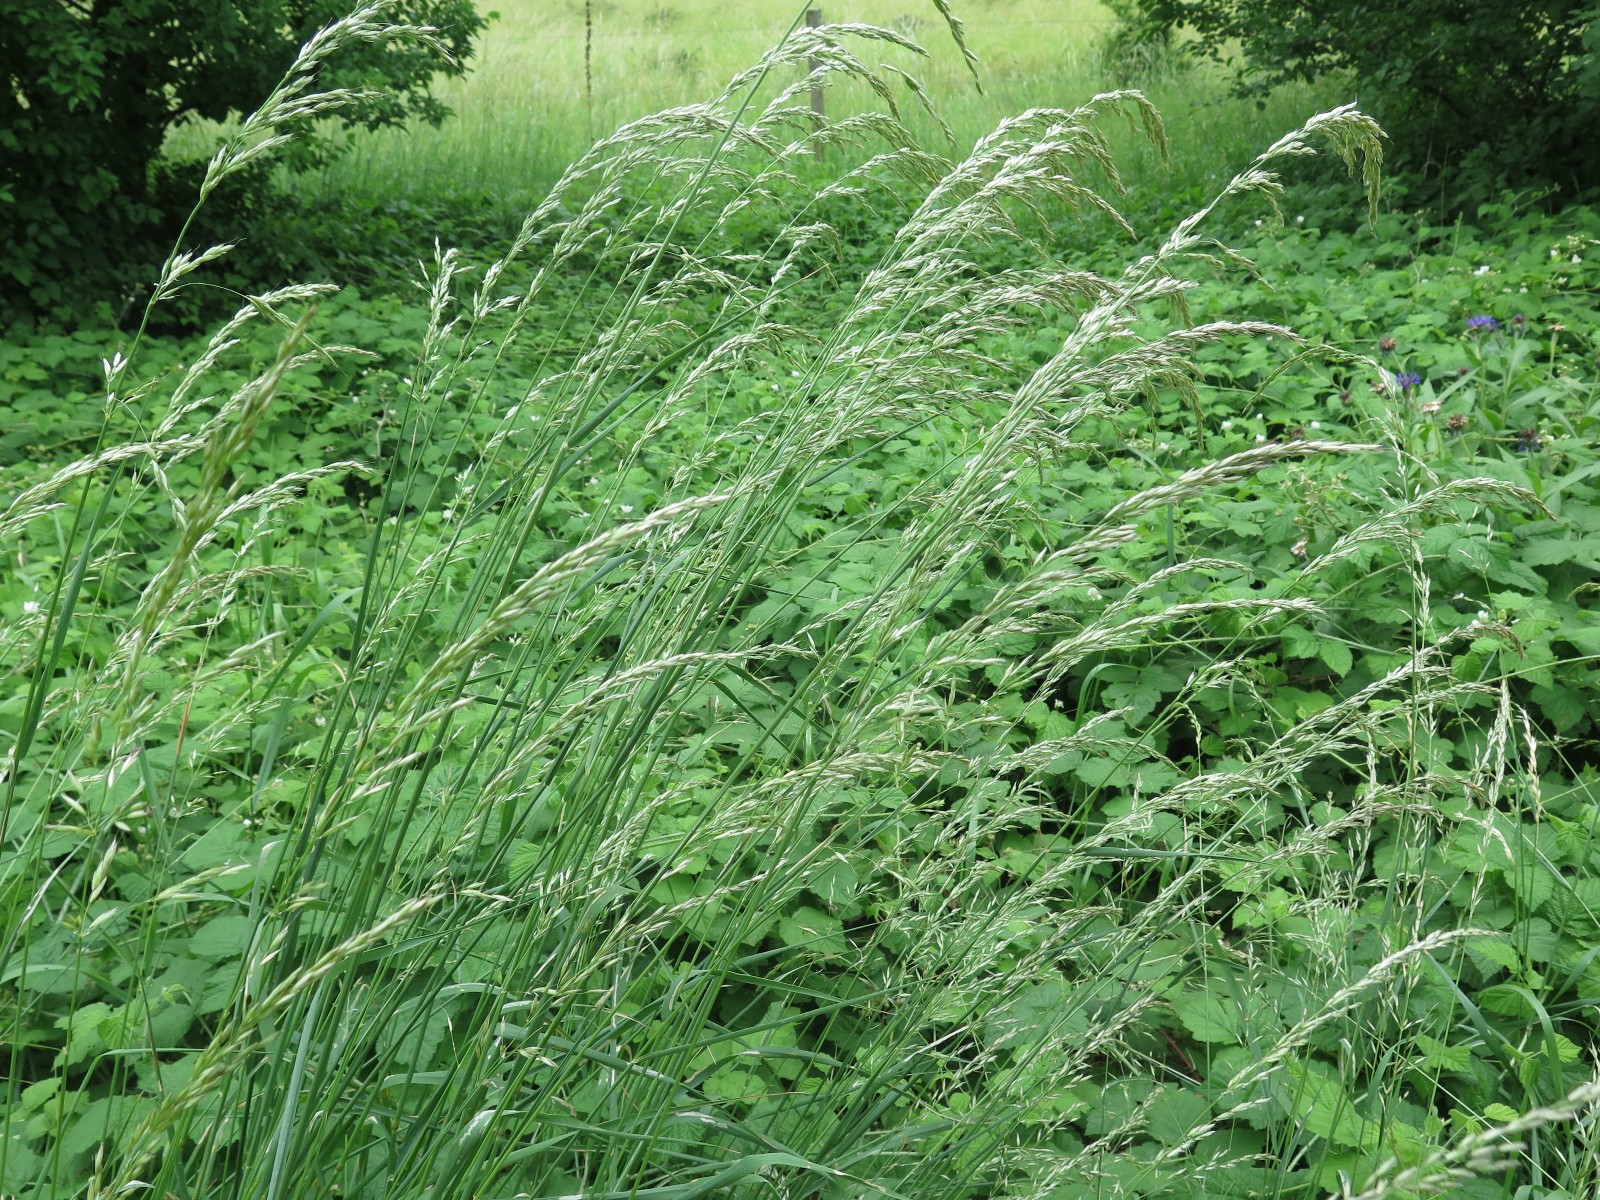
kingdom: Fungi
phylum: Basidiomycota
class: Pucciniomycetes
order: Pucciniales
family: Pucciniaceae
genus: Puccinia
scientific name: Puccinia coronata
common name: Crown rust
